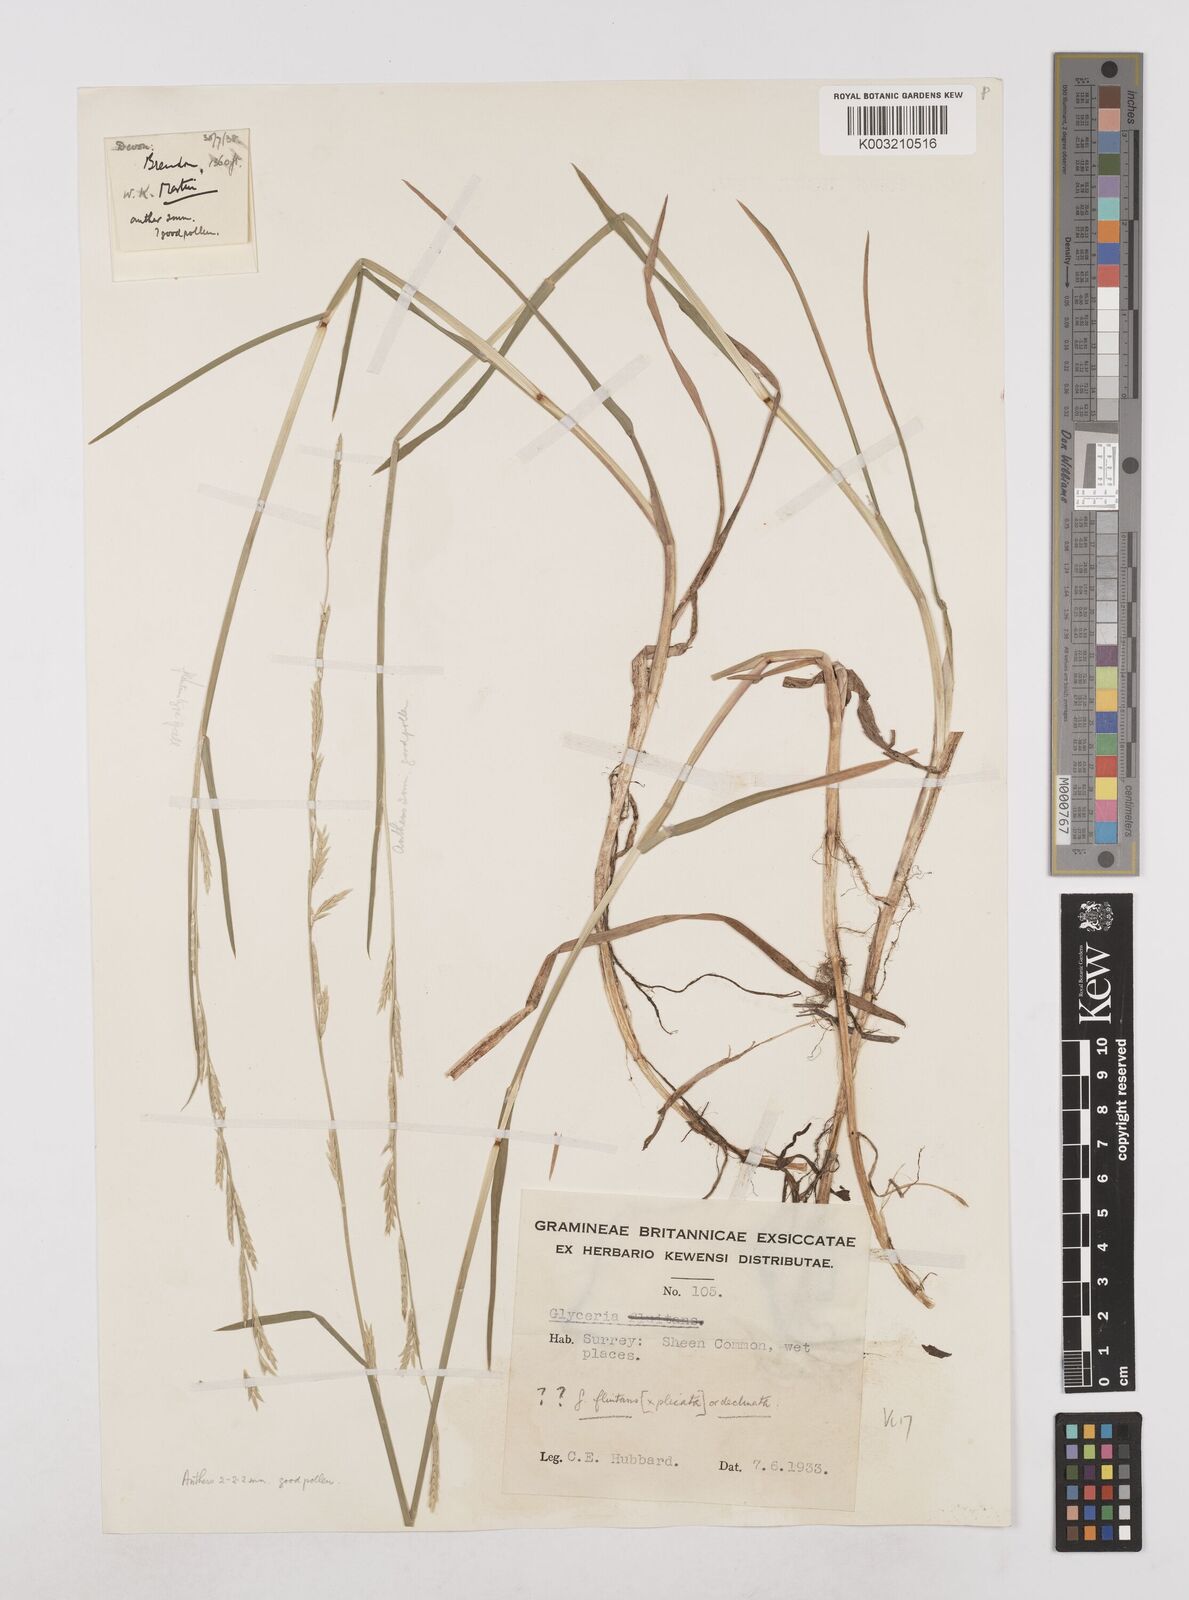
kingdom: Plantae
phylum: Tracheophyta
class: Liliopsida
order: Poales
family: Poaceae
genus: Glyceria
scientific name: Glyceria declinata
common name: Small sweet-grass
